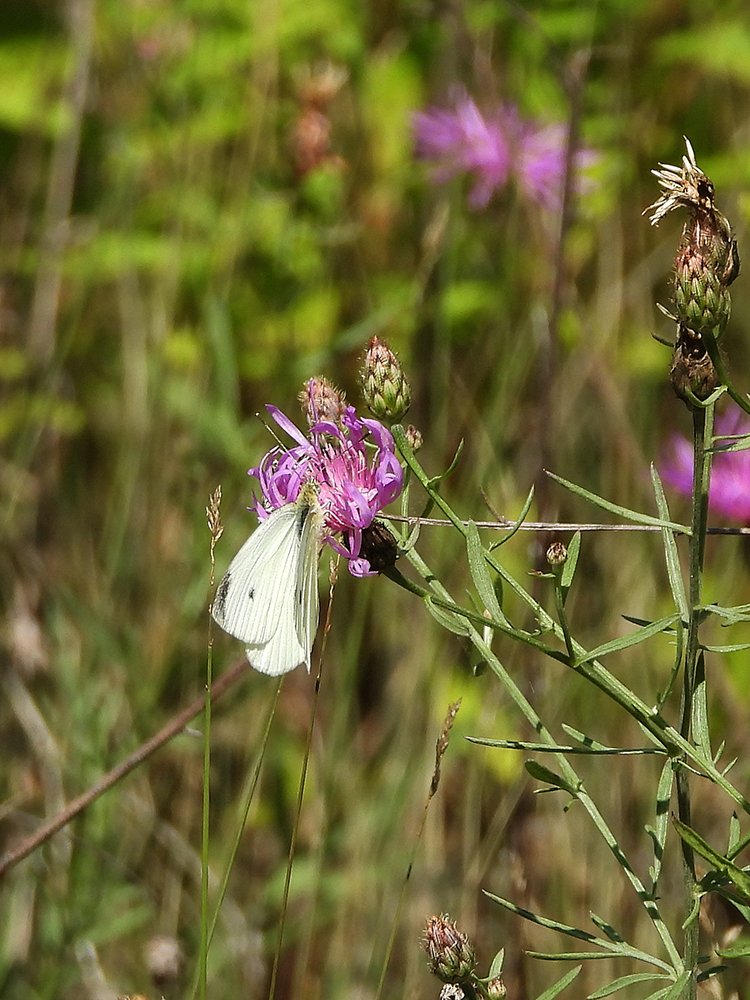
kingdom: Animalia
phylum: Arthropoda
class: Insecta
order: Lepidoptera
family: Pieridae
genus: Pieris
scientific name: Pieris rapae
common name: Cabbage White
